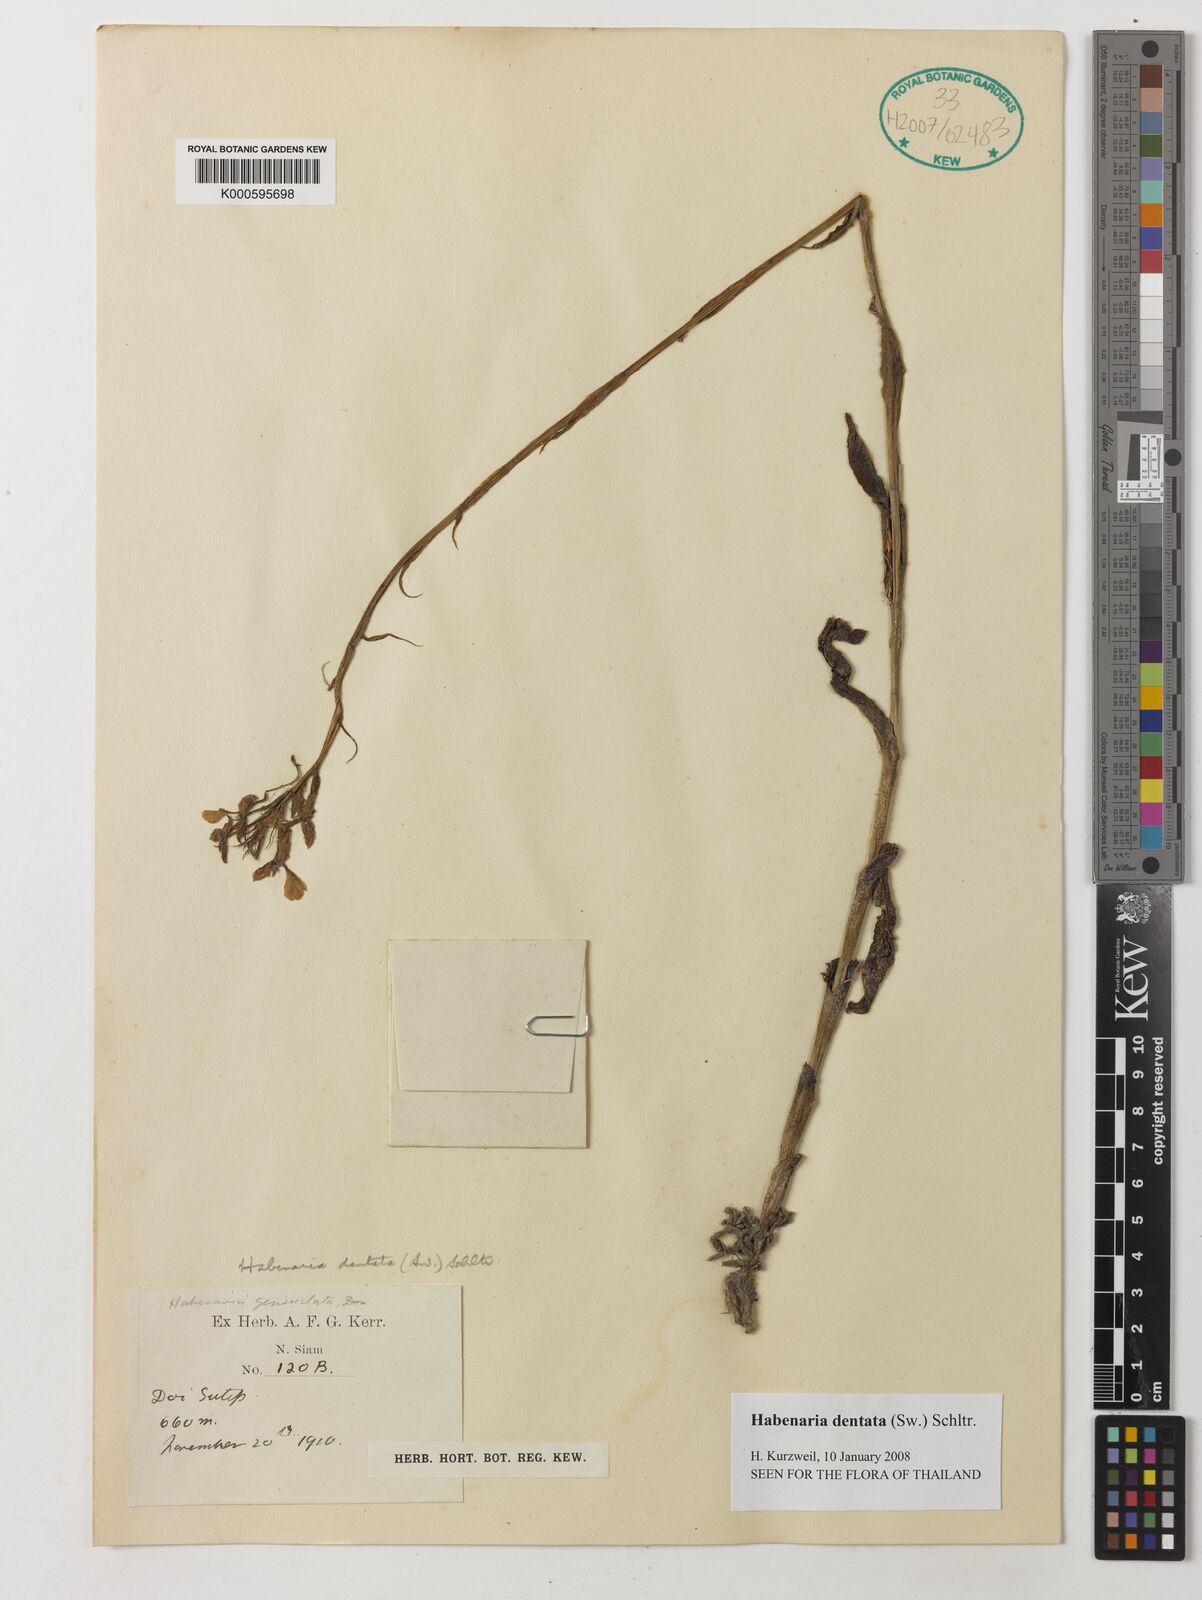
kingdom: Plantae
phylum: Tracheophyta
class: Liliopsida
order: Asparagales
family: Orchidaceae
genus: Habenaria
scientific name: Habenaria dentata
